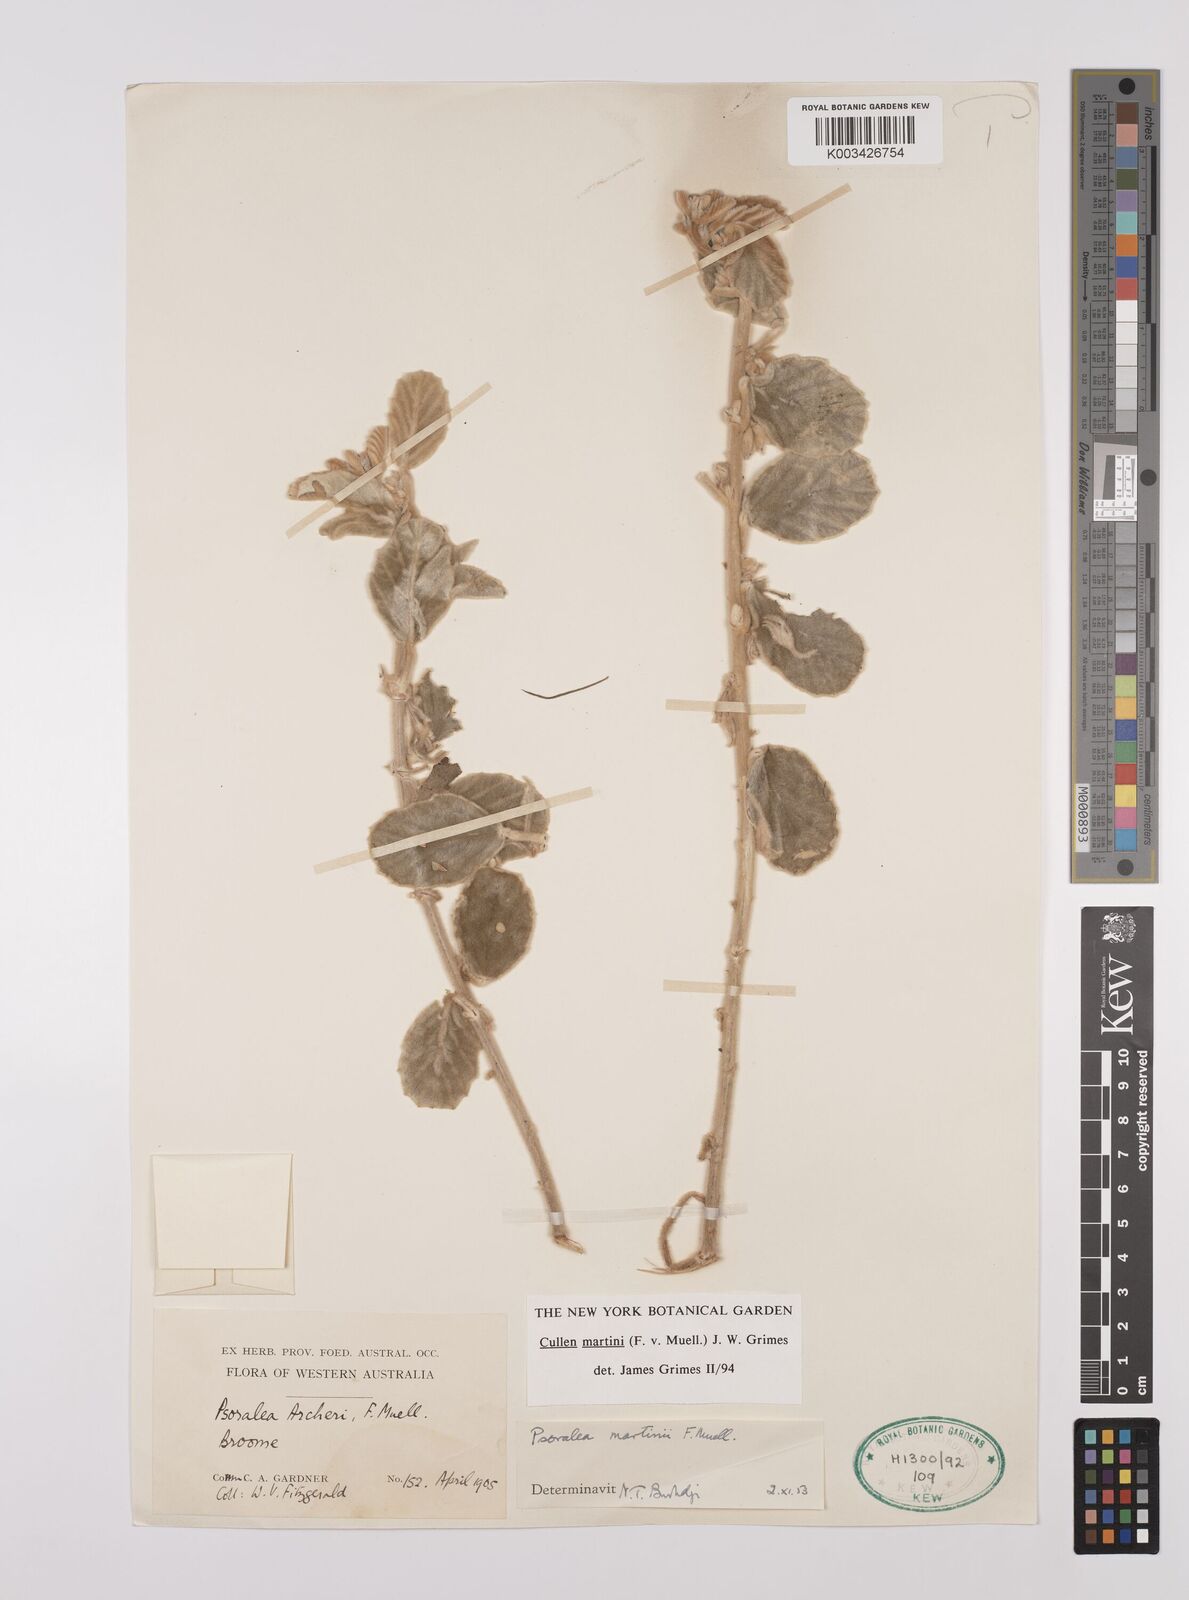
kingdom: Plantae
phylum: Tracheophyta
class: Magnoliopsida
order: Fabales
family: Fabaceae
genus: Cullen
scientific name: Cullen martini
